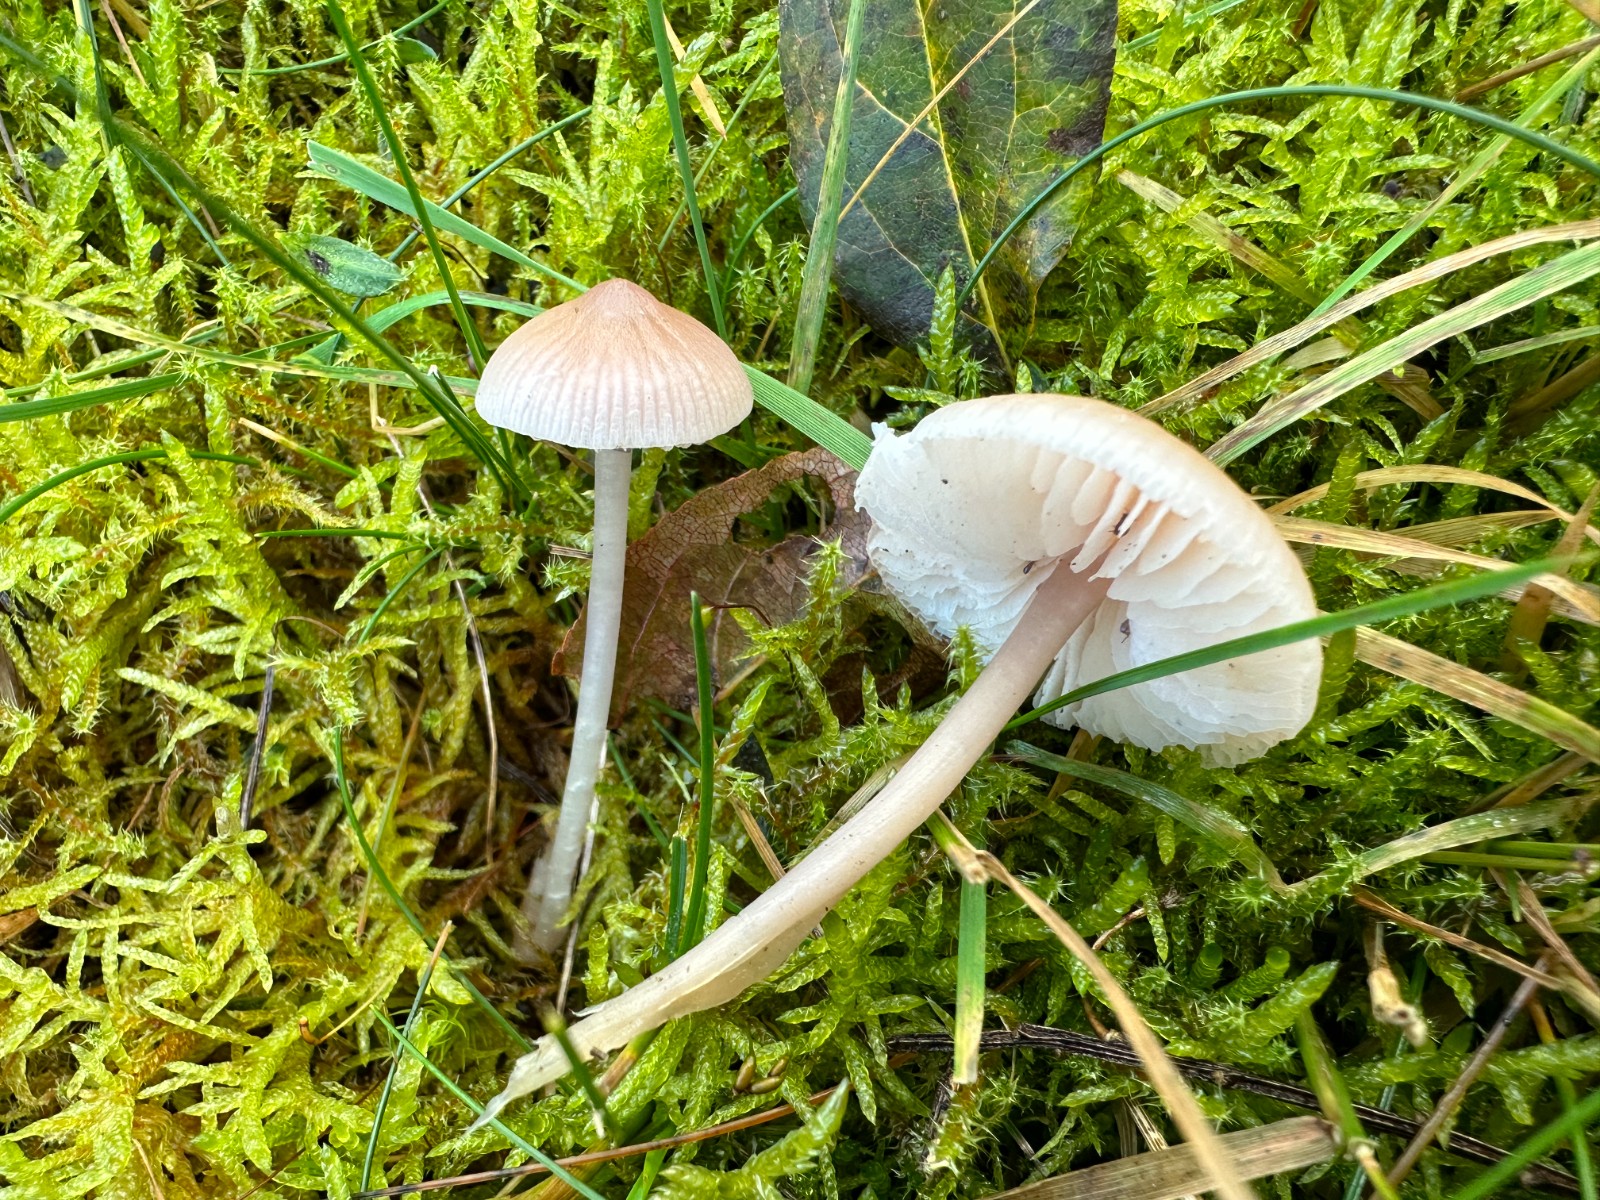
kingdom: Fungi
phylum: Basidiomycota
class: Agaricomycetes
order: Agaricales
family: Mycenaceae
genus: Mycena
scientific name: Mycena luteovariegata
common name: lillagul huesvamp
